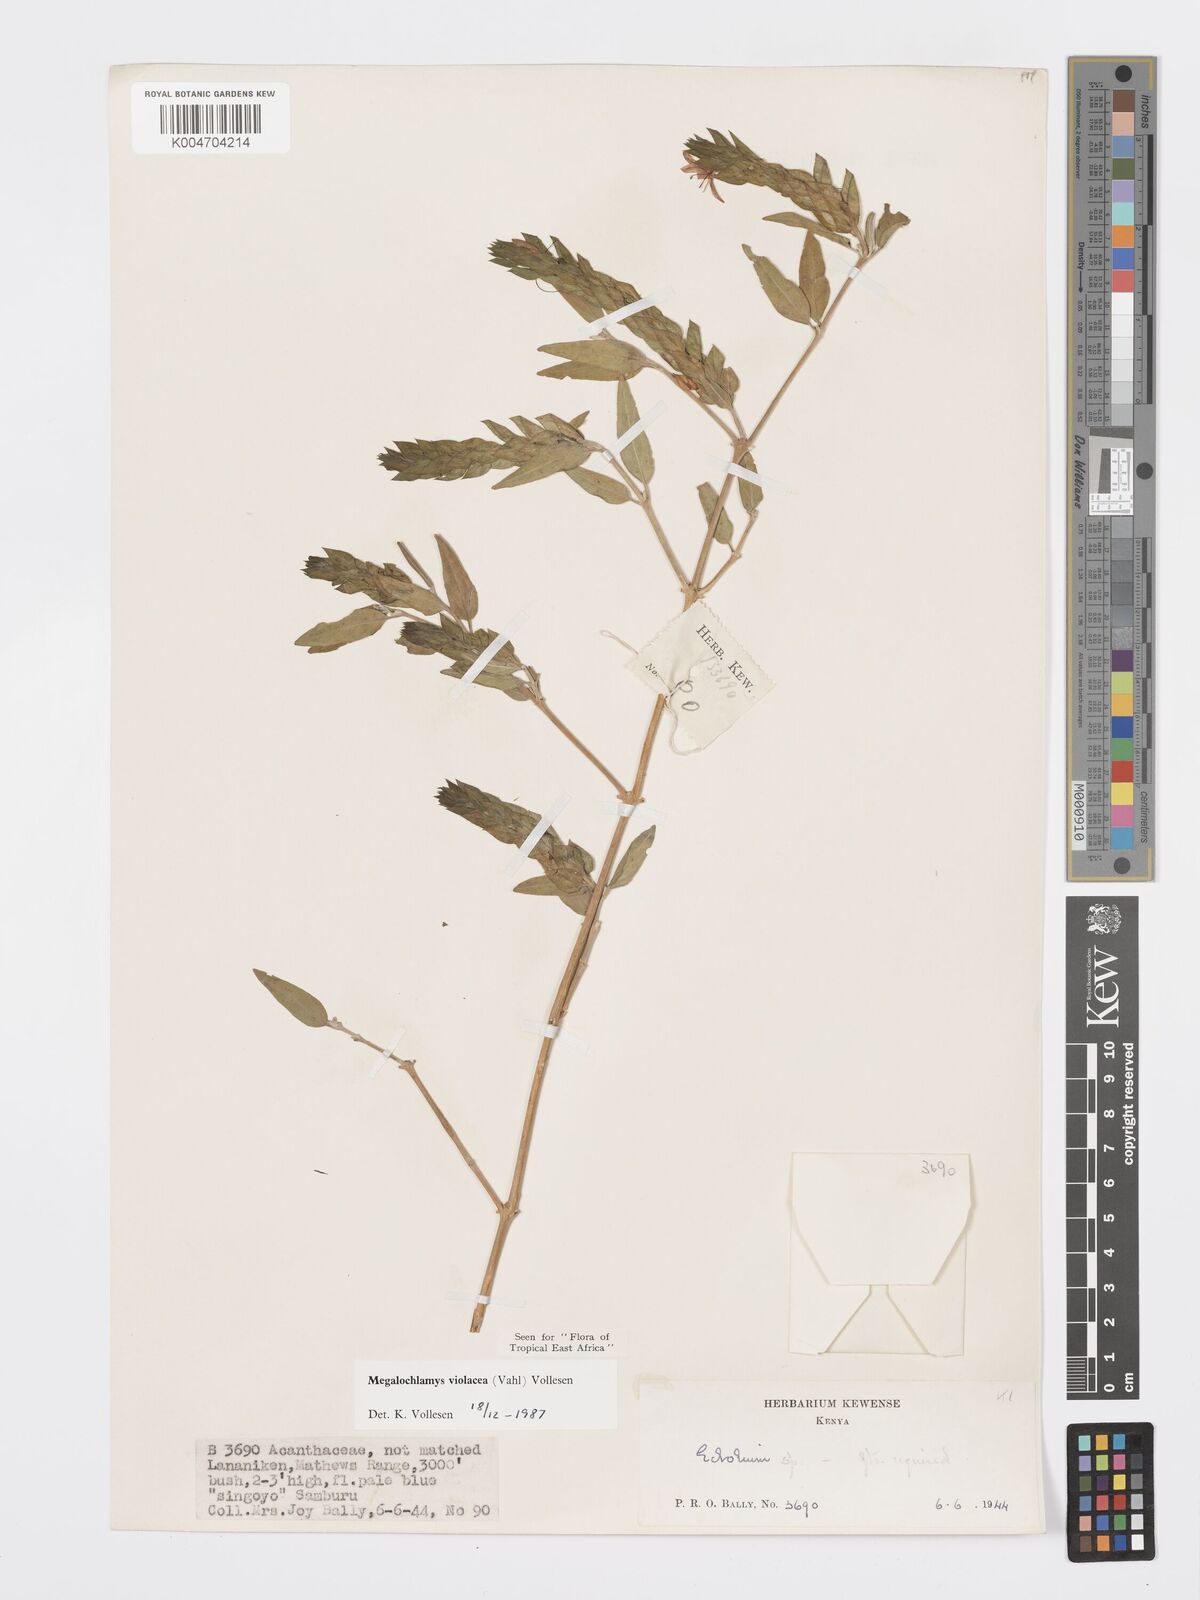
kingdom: Plantae
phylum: Tracheophyta
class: Magnoliopsida
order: Lamiales
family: Acanthaceae
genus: Megalochlamys
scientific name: Megalochlamys violacea
